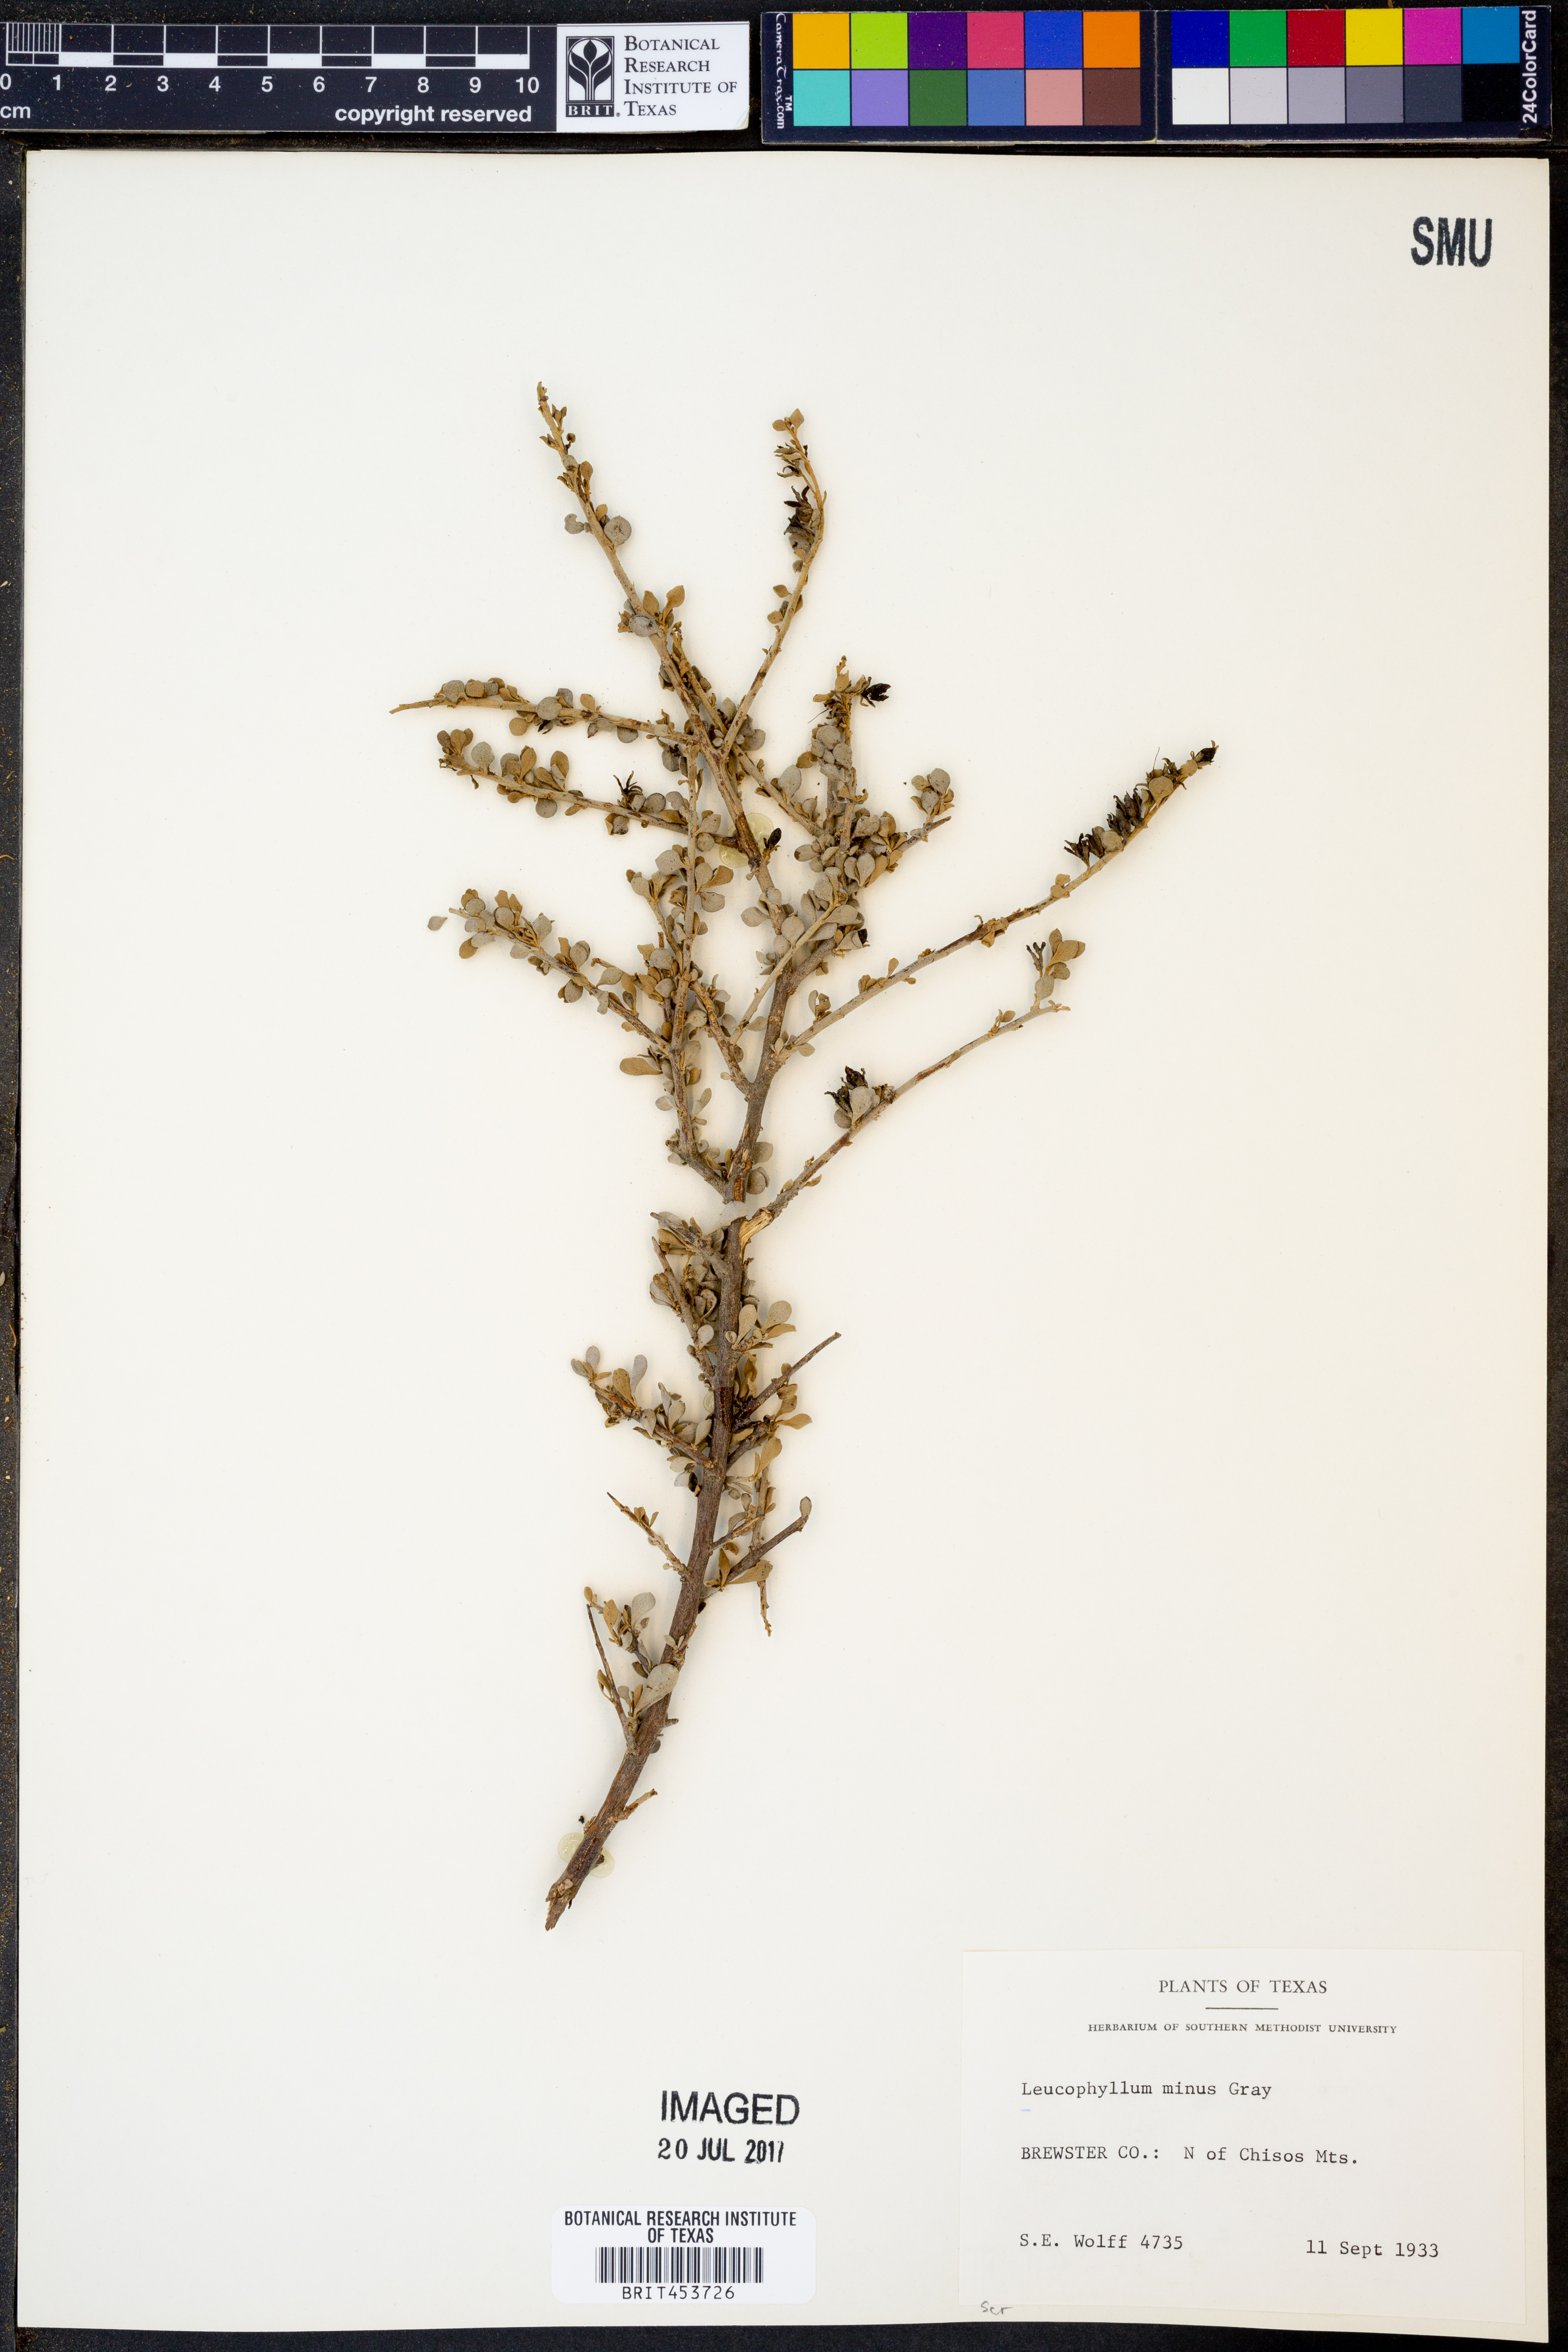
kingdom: Plantae
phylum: Tracheophyta
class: Magnoliopsida
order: Lamiales
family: Scrophulariaceae
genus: Leucophyllum
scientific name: Leucophyllum minus
